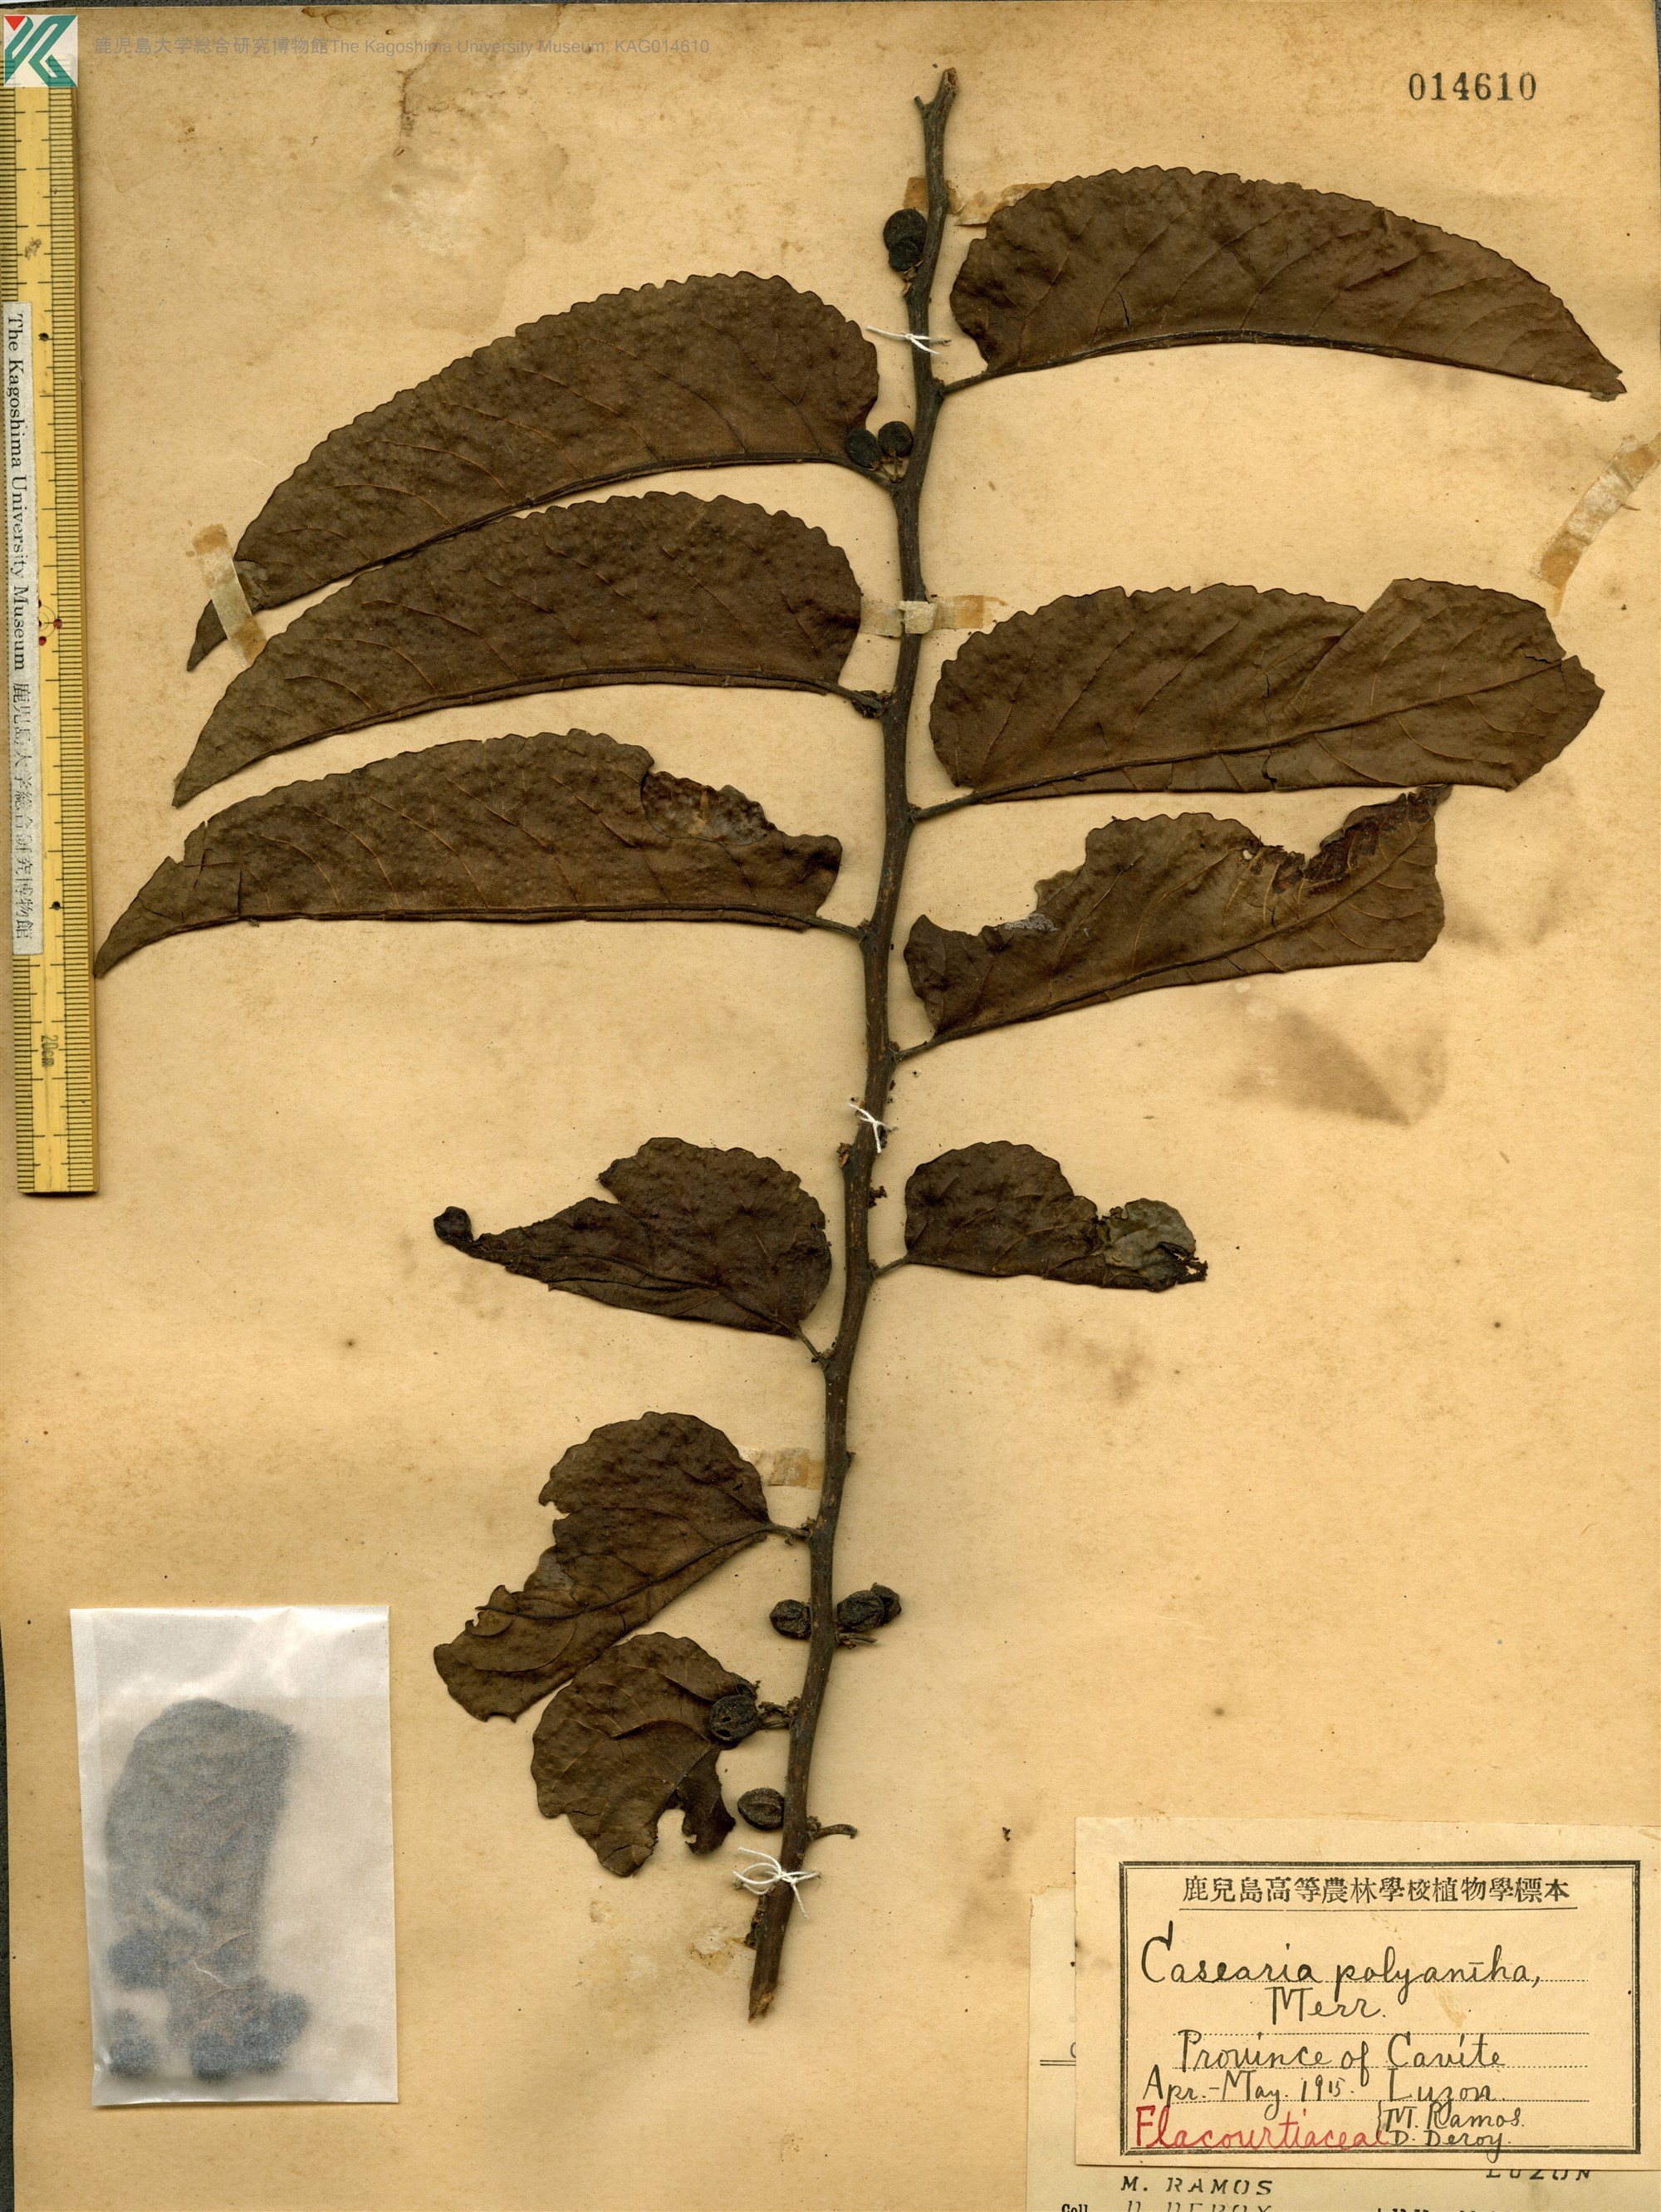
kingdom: Plantae
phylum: Tracheophyta
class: Magnoliopsida
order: Malpighiales
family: Salicaceae
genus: Casearia
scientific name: Casearia grewiifolia
